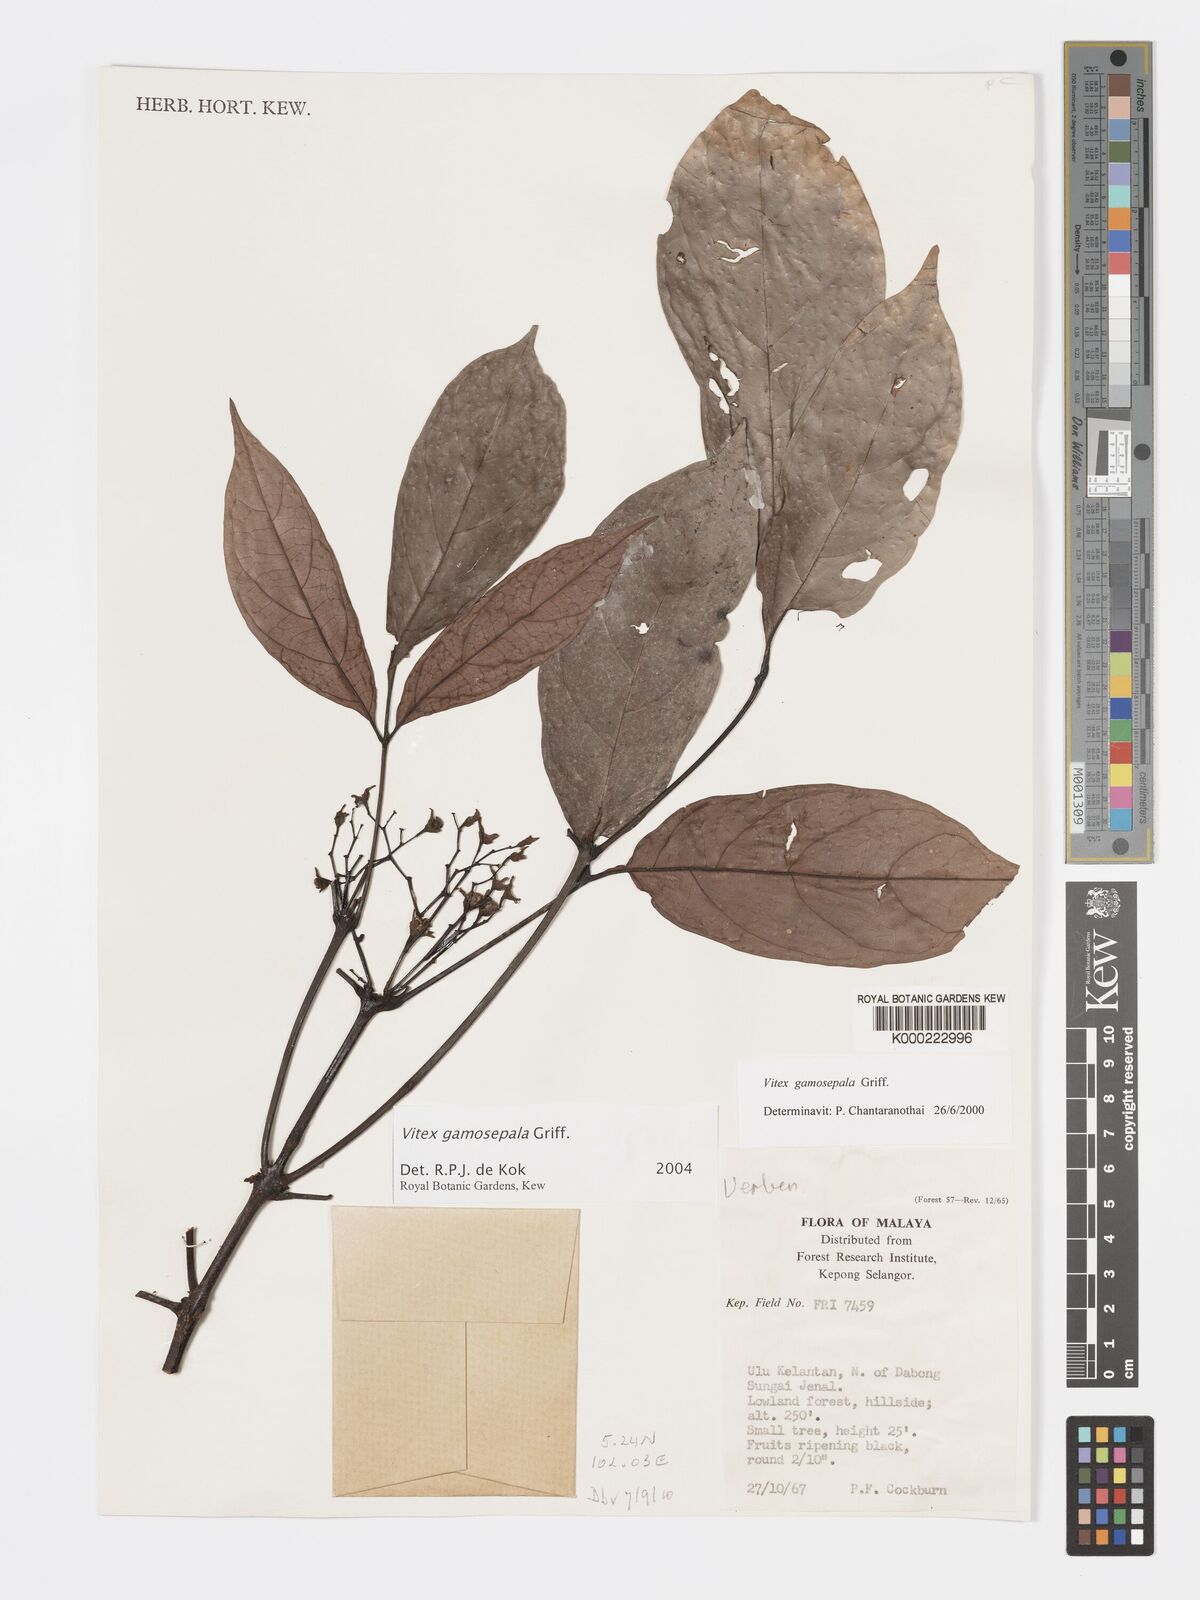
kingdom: Plantae
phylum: Tracheophyta
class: Magnoliopsida
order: Lamiales
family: Lamiaceae
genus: Vitex
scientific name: Vitex gamosepala
